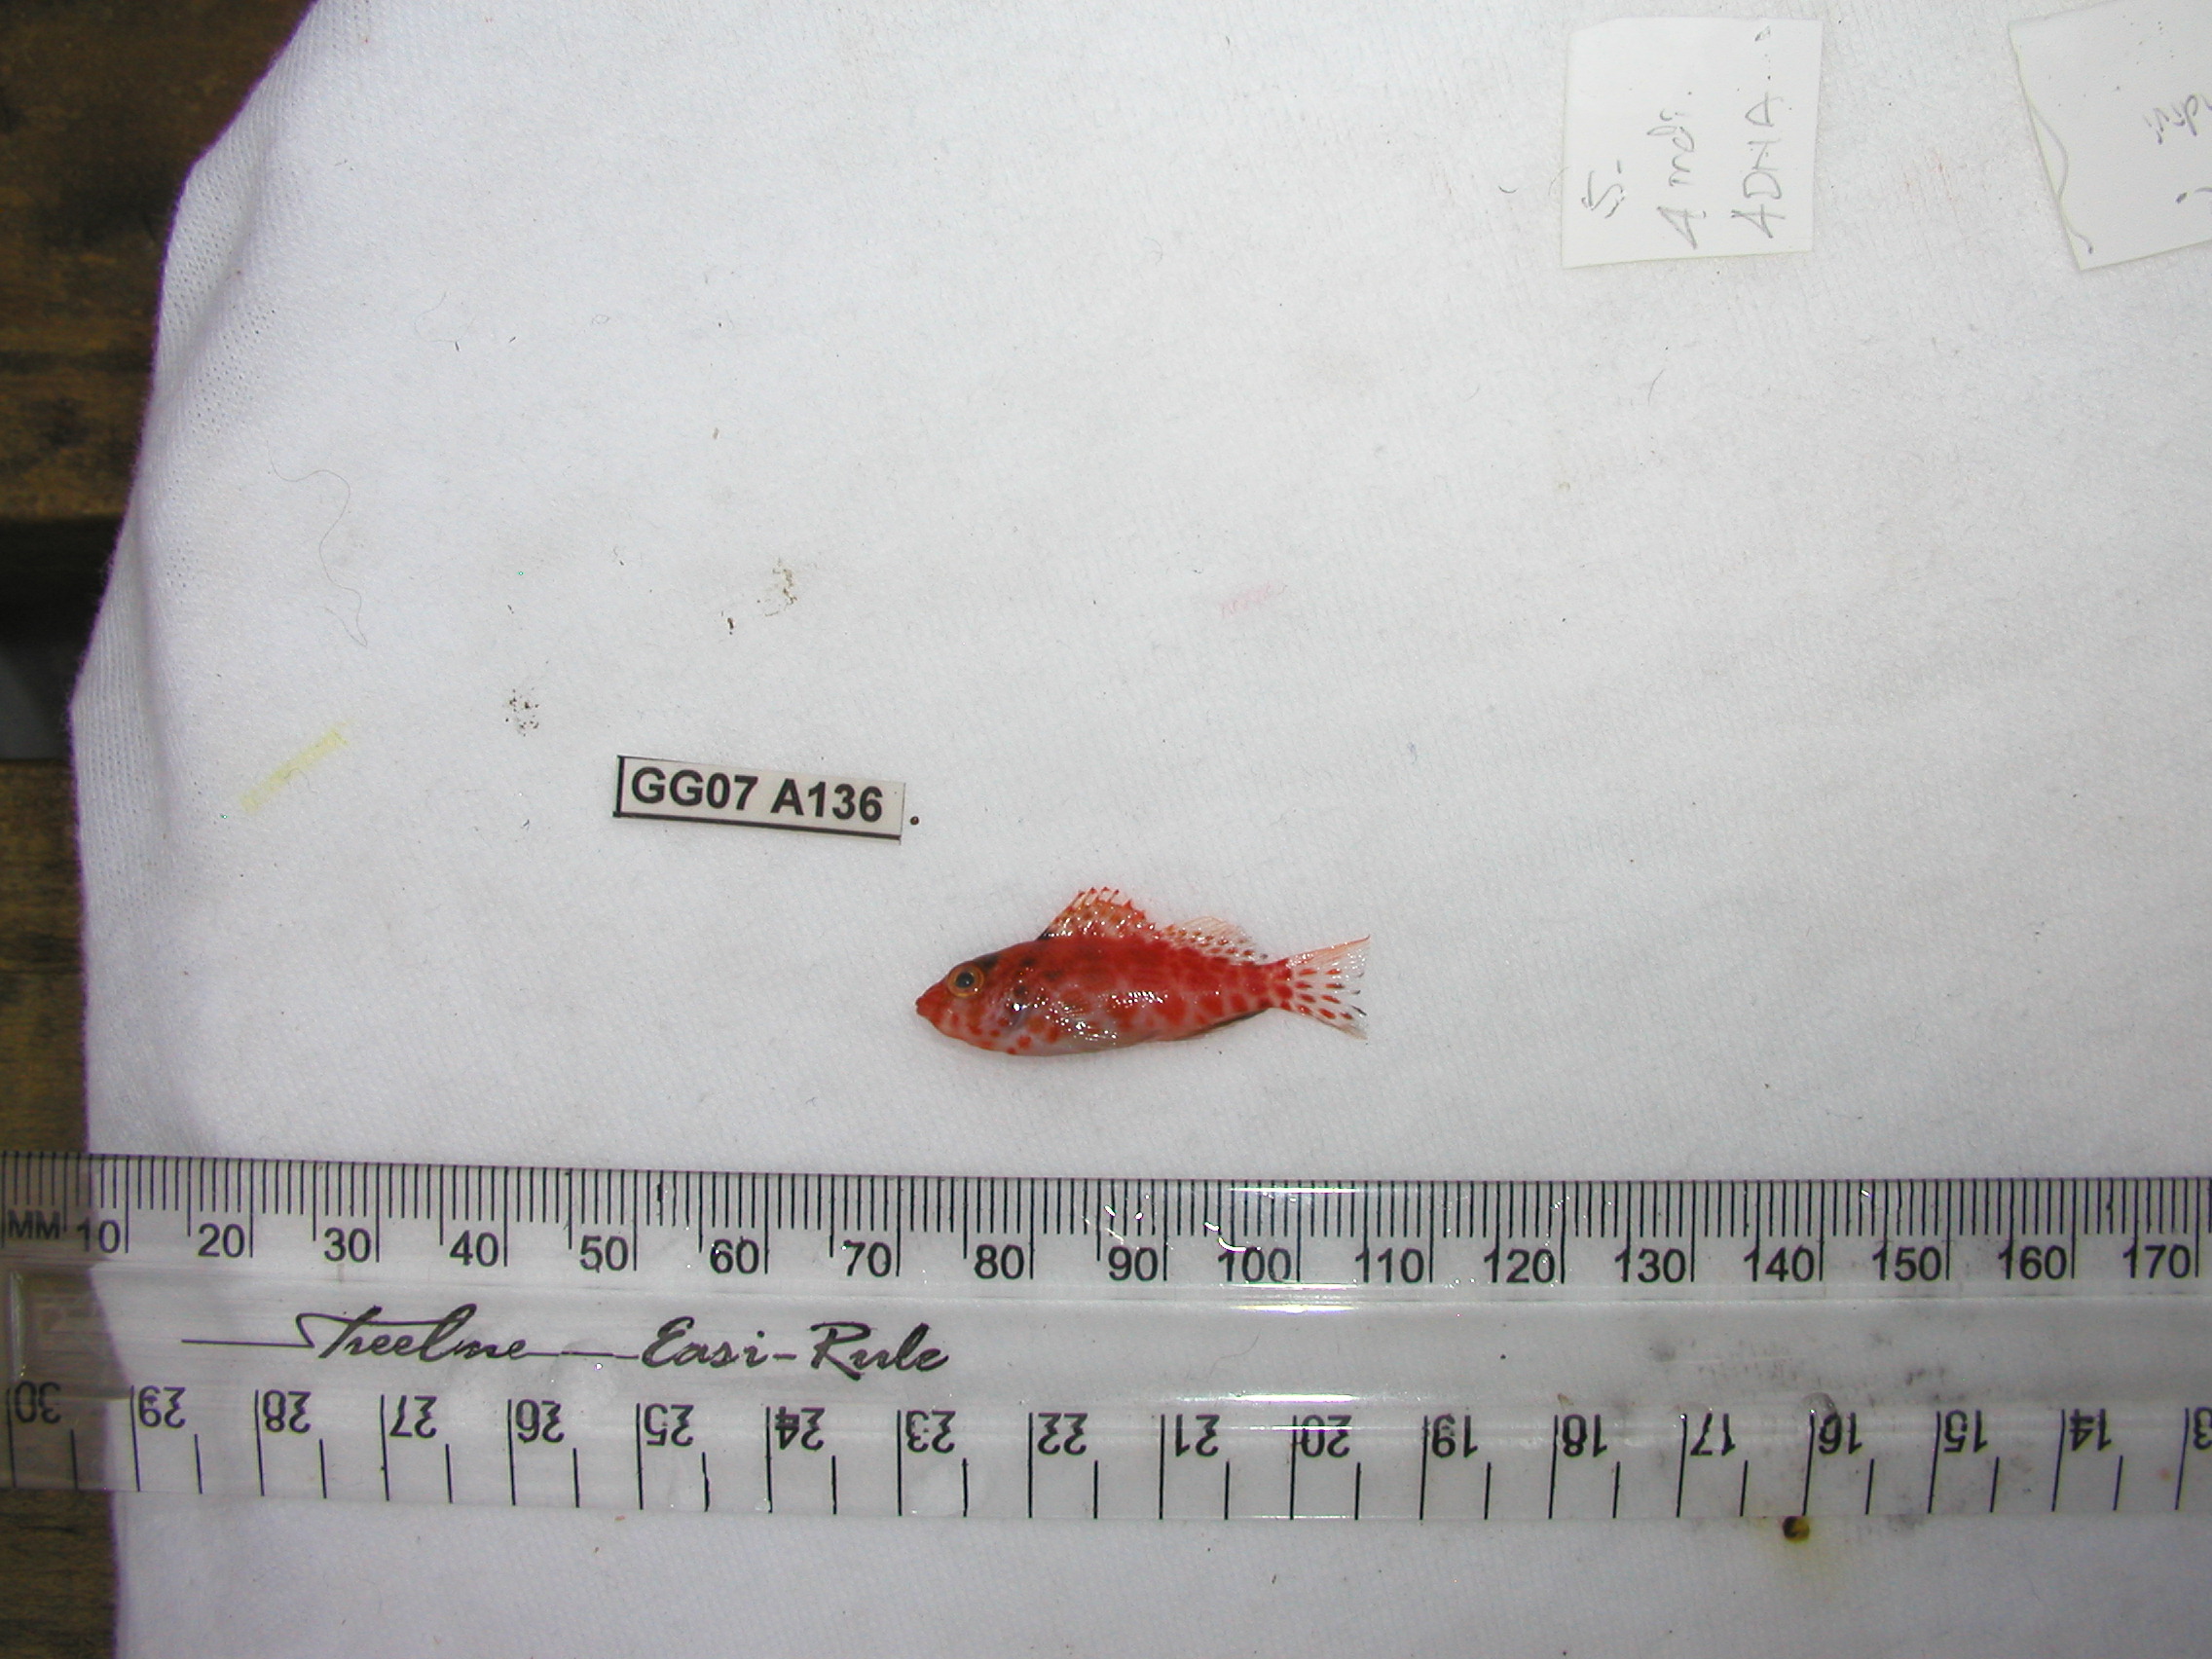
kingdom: Animalia
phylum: Chordata
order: Perciformes
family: Cirrhitidae
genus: Cirrhitichthys
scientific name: Cirrhitichthys oxycephalus
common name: Spotted hawkfish
